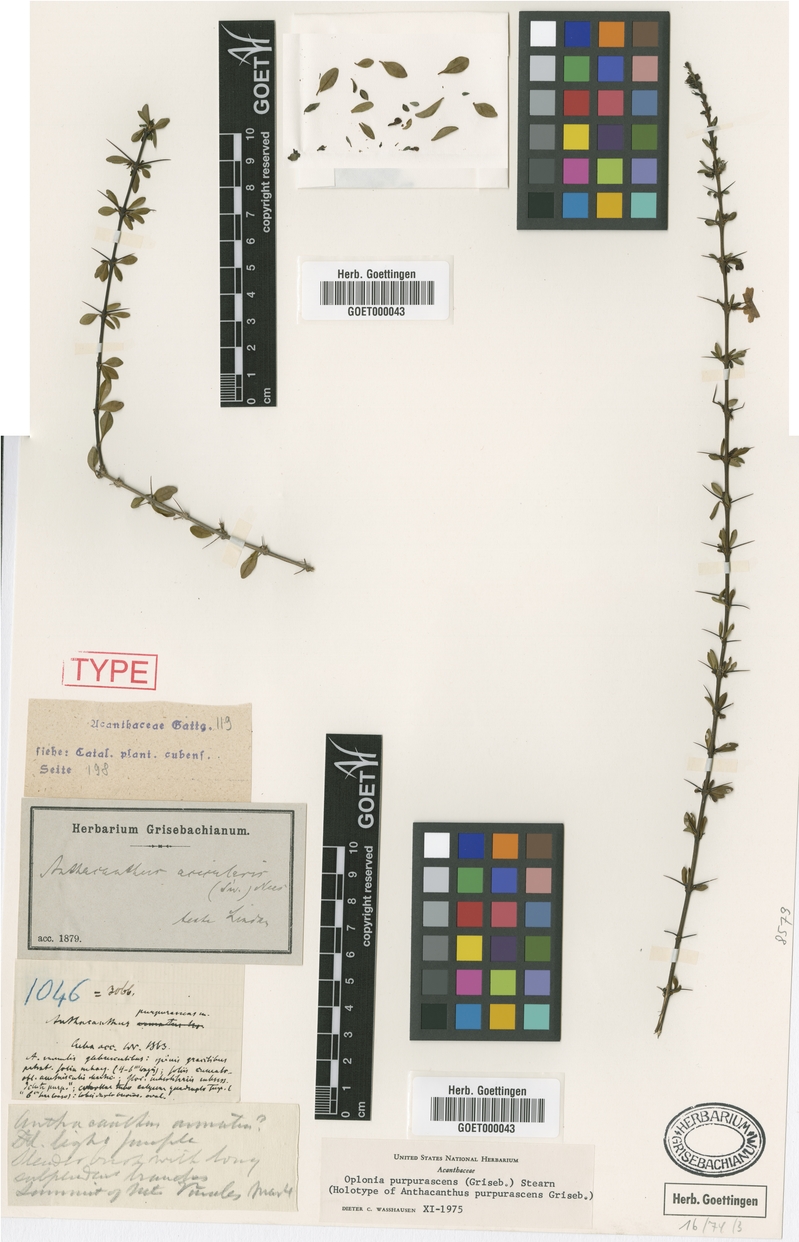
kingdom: Plantae
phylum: Tracheophyta
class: Magnoliopsida
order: Lamiales
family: Acanthaceae
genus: Oplonia
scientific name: Oplonia purpurascens
